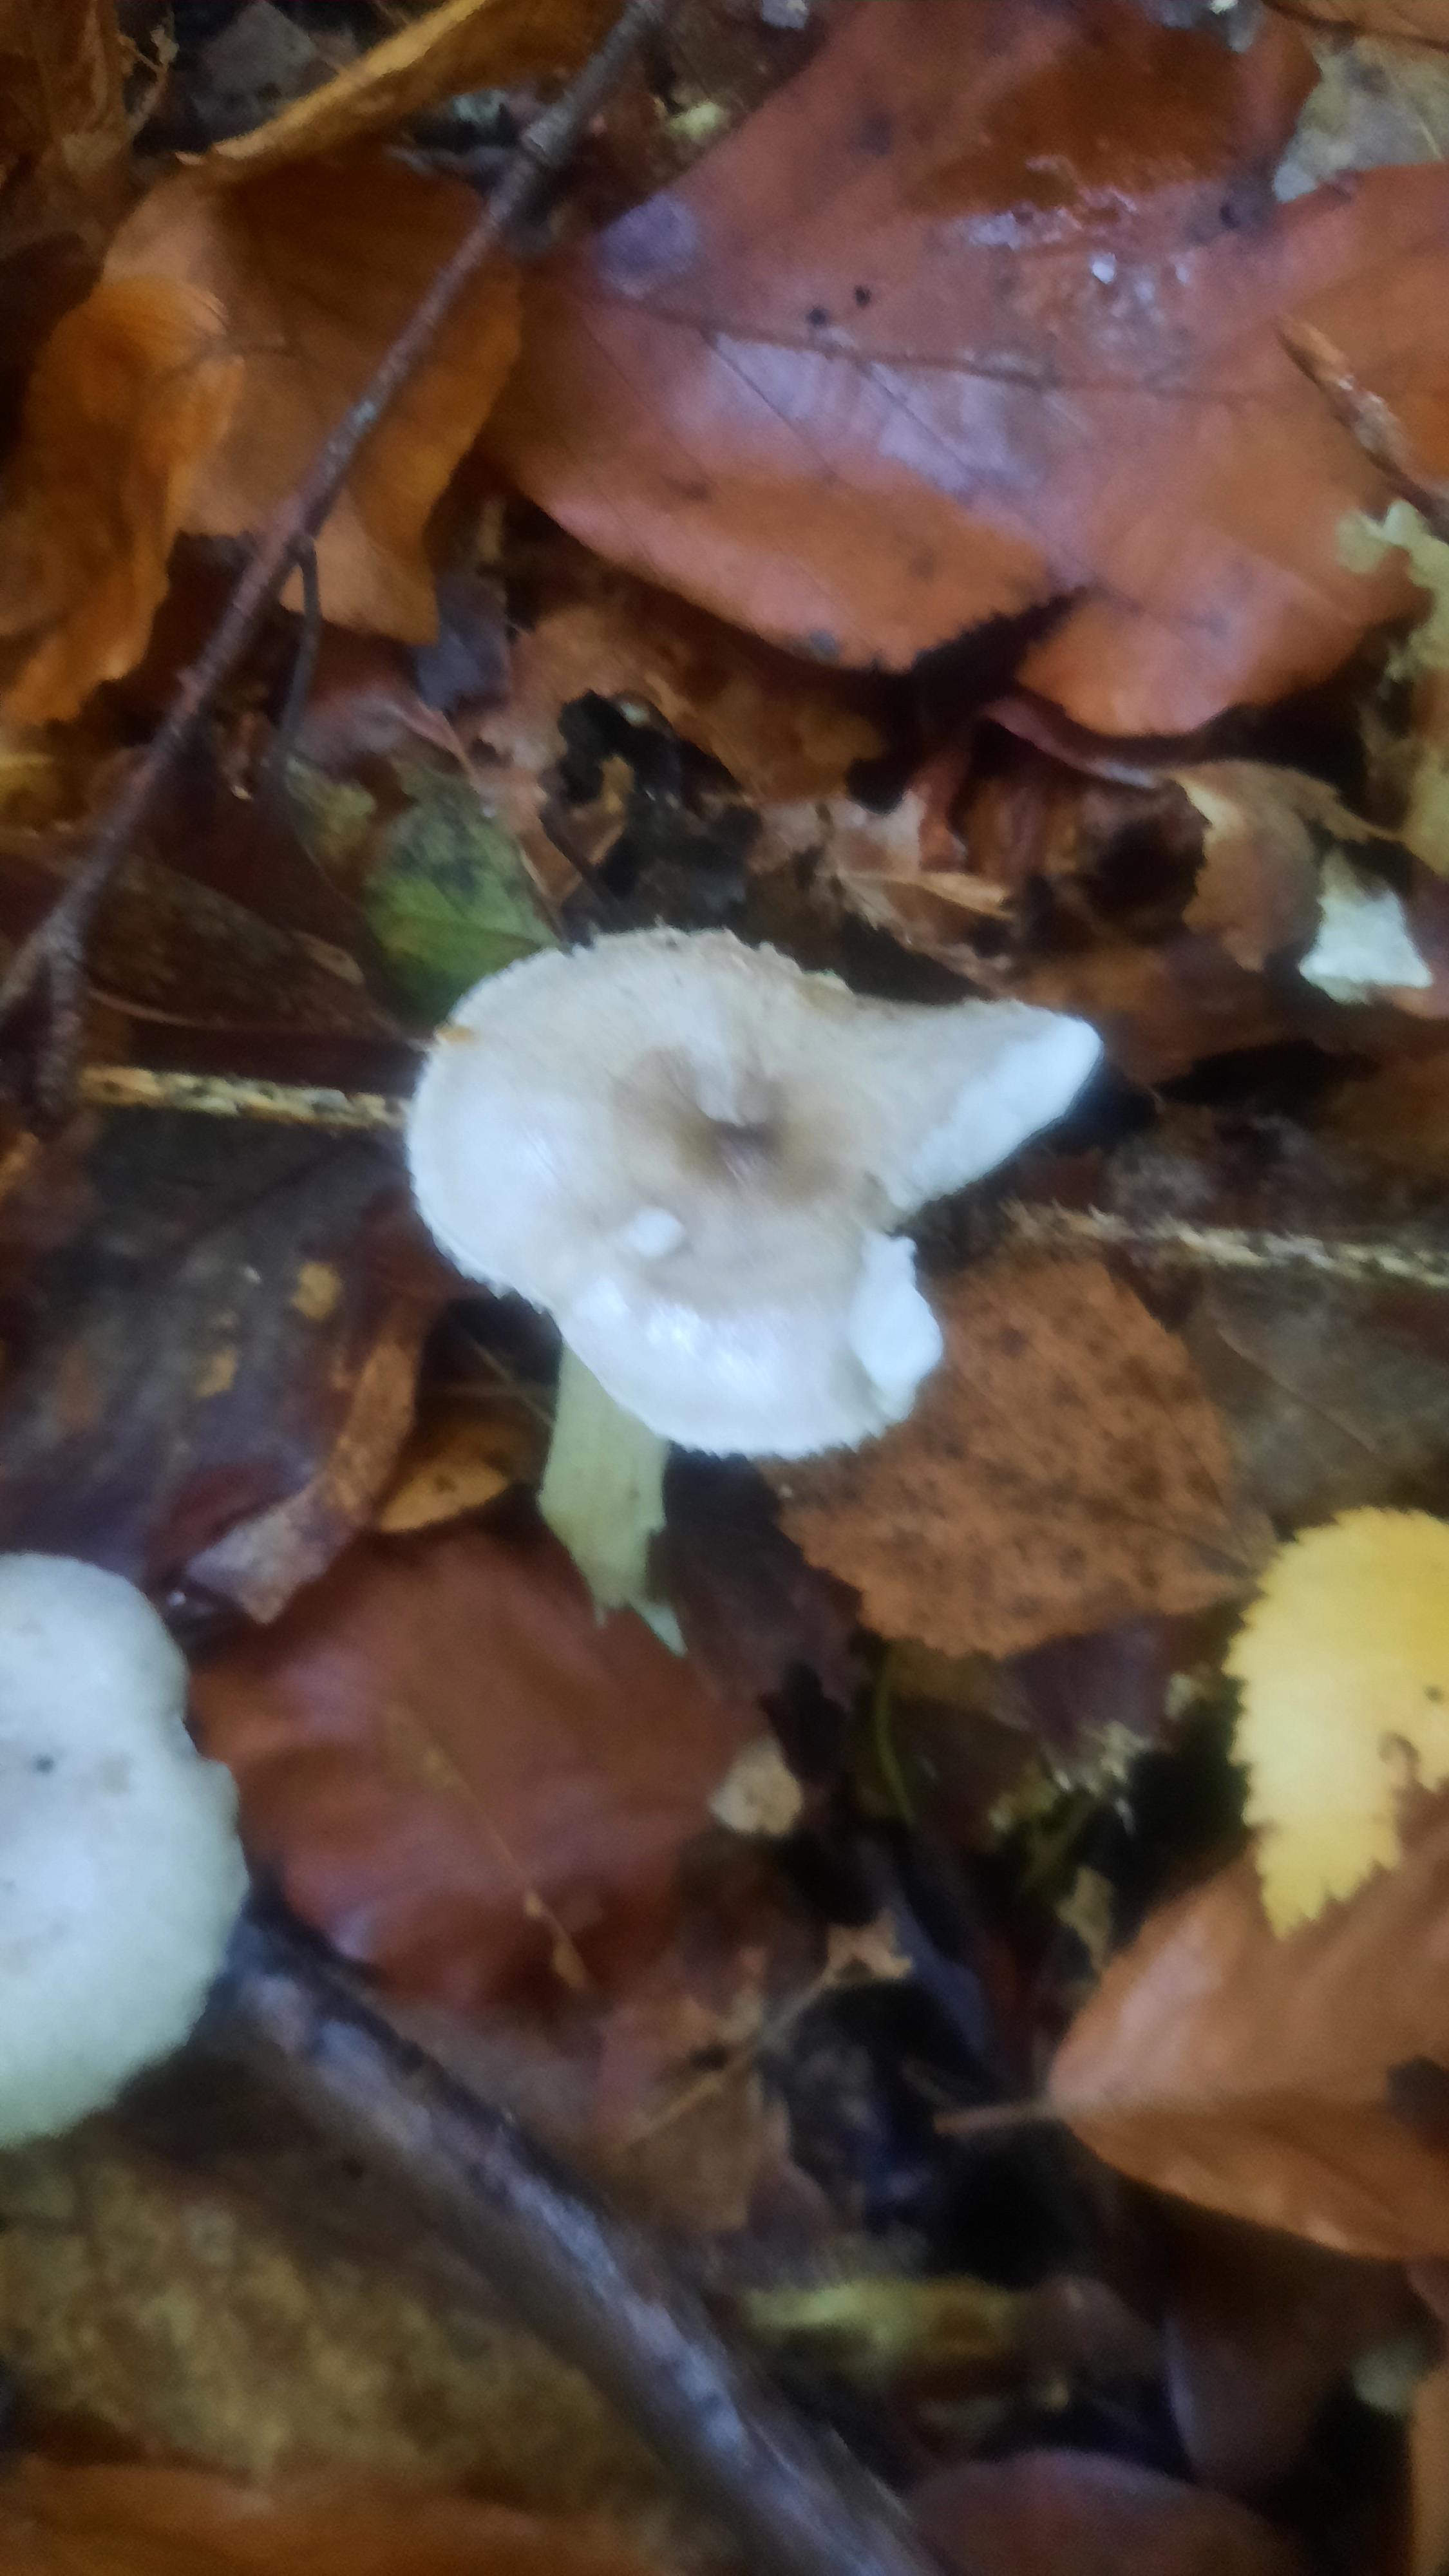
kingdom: Fungi
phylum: Basidiomycota
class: Agaricomycetes
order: Agaricales
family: Hygrophoraceae
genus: Hygrophorus
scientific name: Hygrophorus pustulatus
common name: mørkprikket sneglehat
